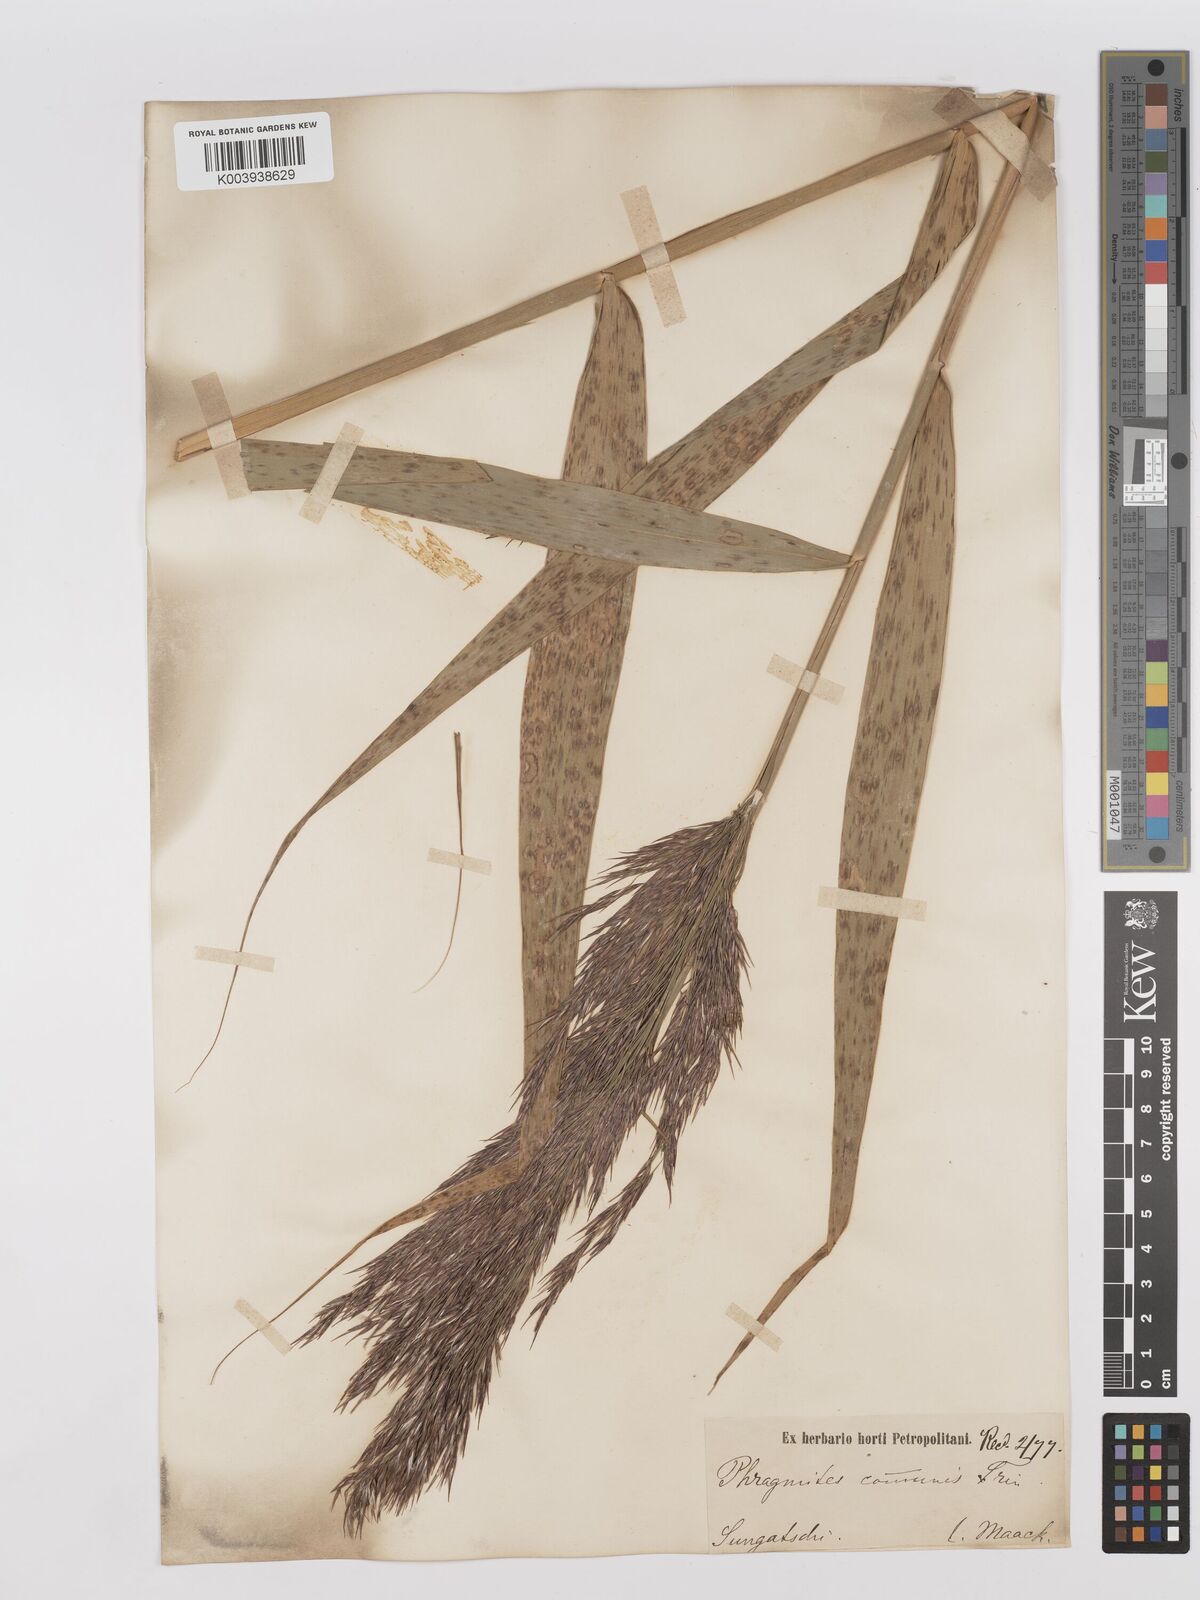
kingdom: Plantae
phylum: Tracheophyta
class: Liliopsida
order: Poales
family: Poaceae
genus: Phragmites
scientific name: Phragmites australis
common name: Common reed
